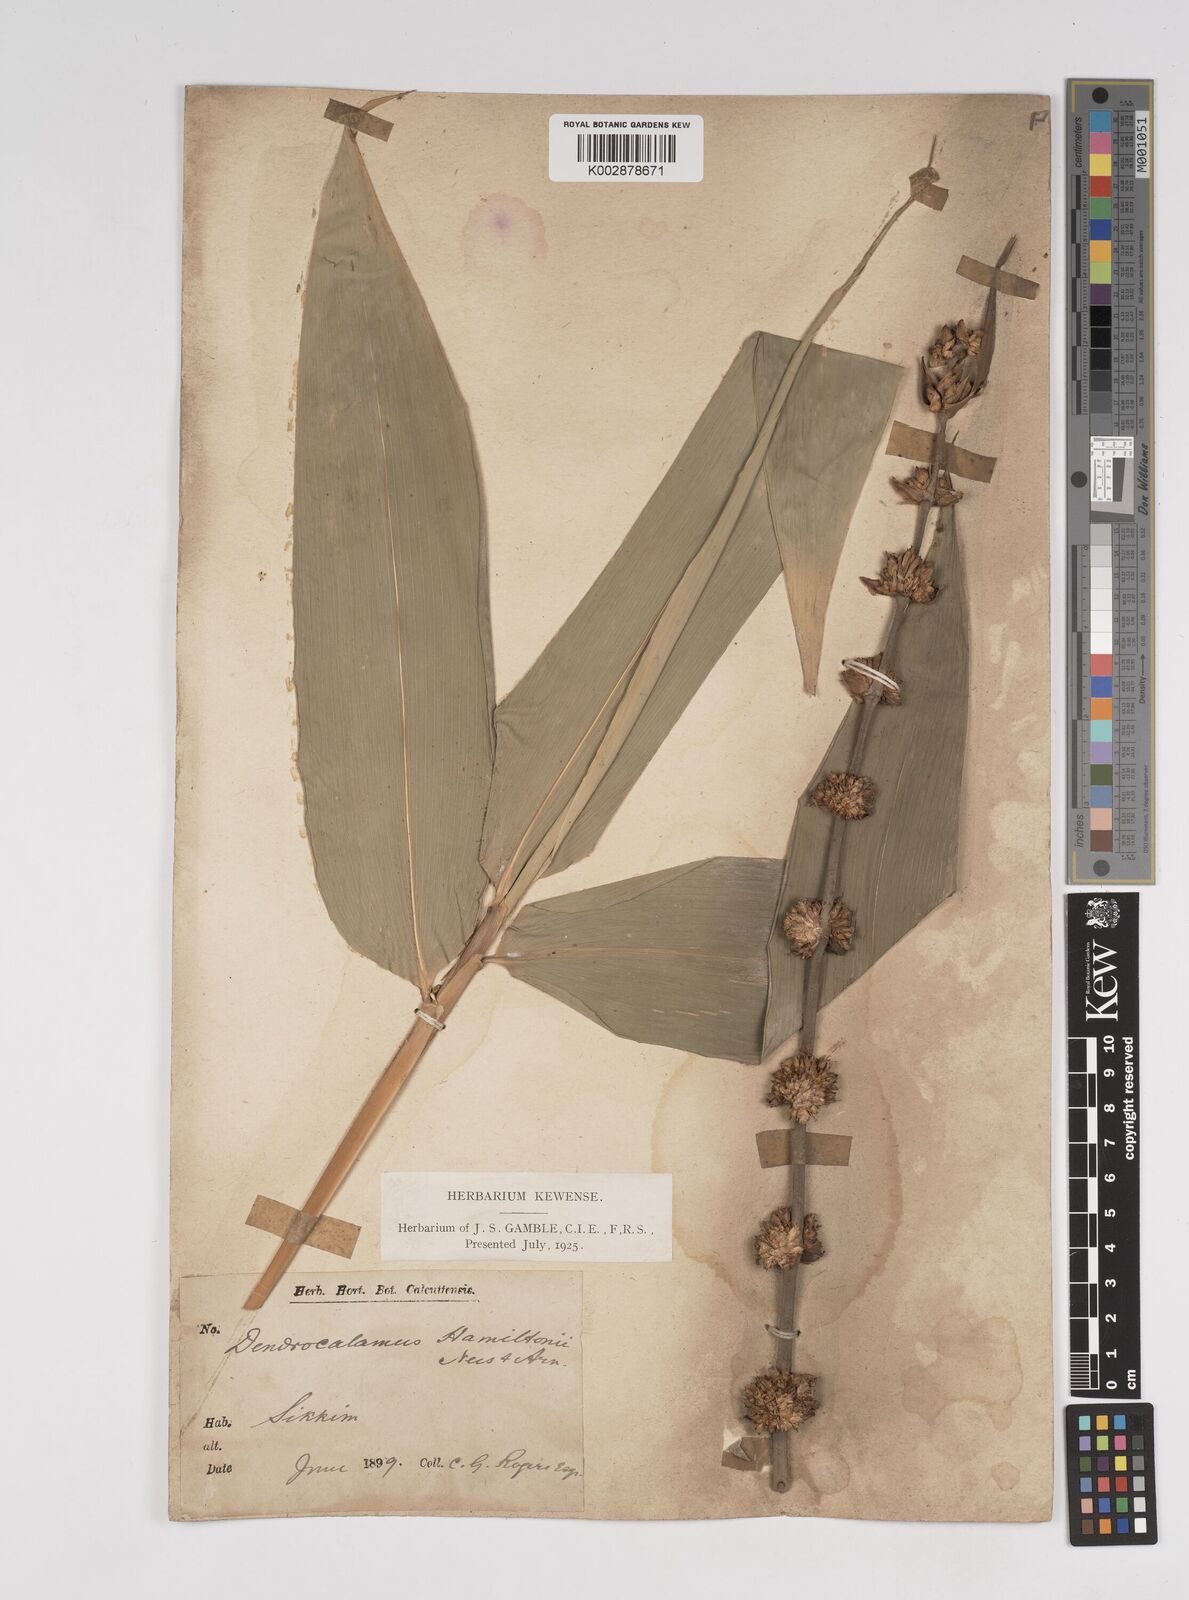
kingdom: Plantae
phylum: Tracheophyta
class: Liliopsida
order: Poales
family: Poaceae
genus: Dendrocalamus
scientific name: Dendrocalamus hamiltonii
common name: Tama bamboo
